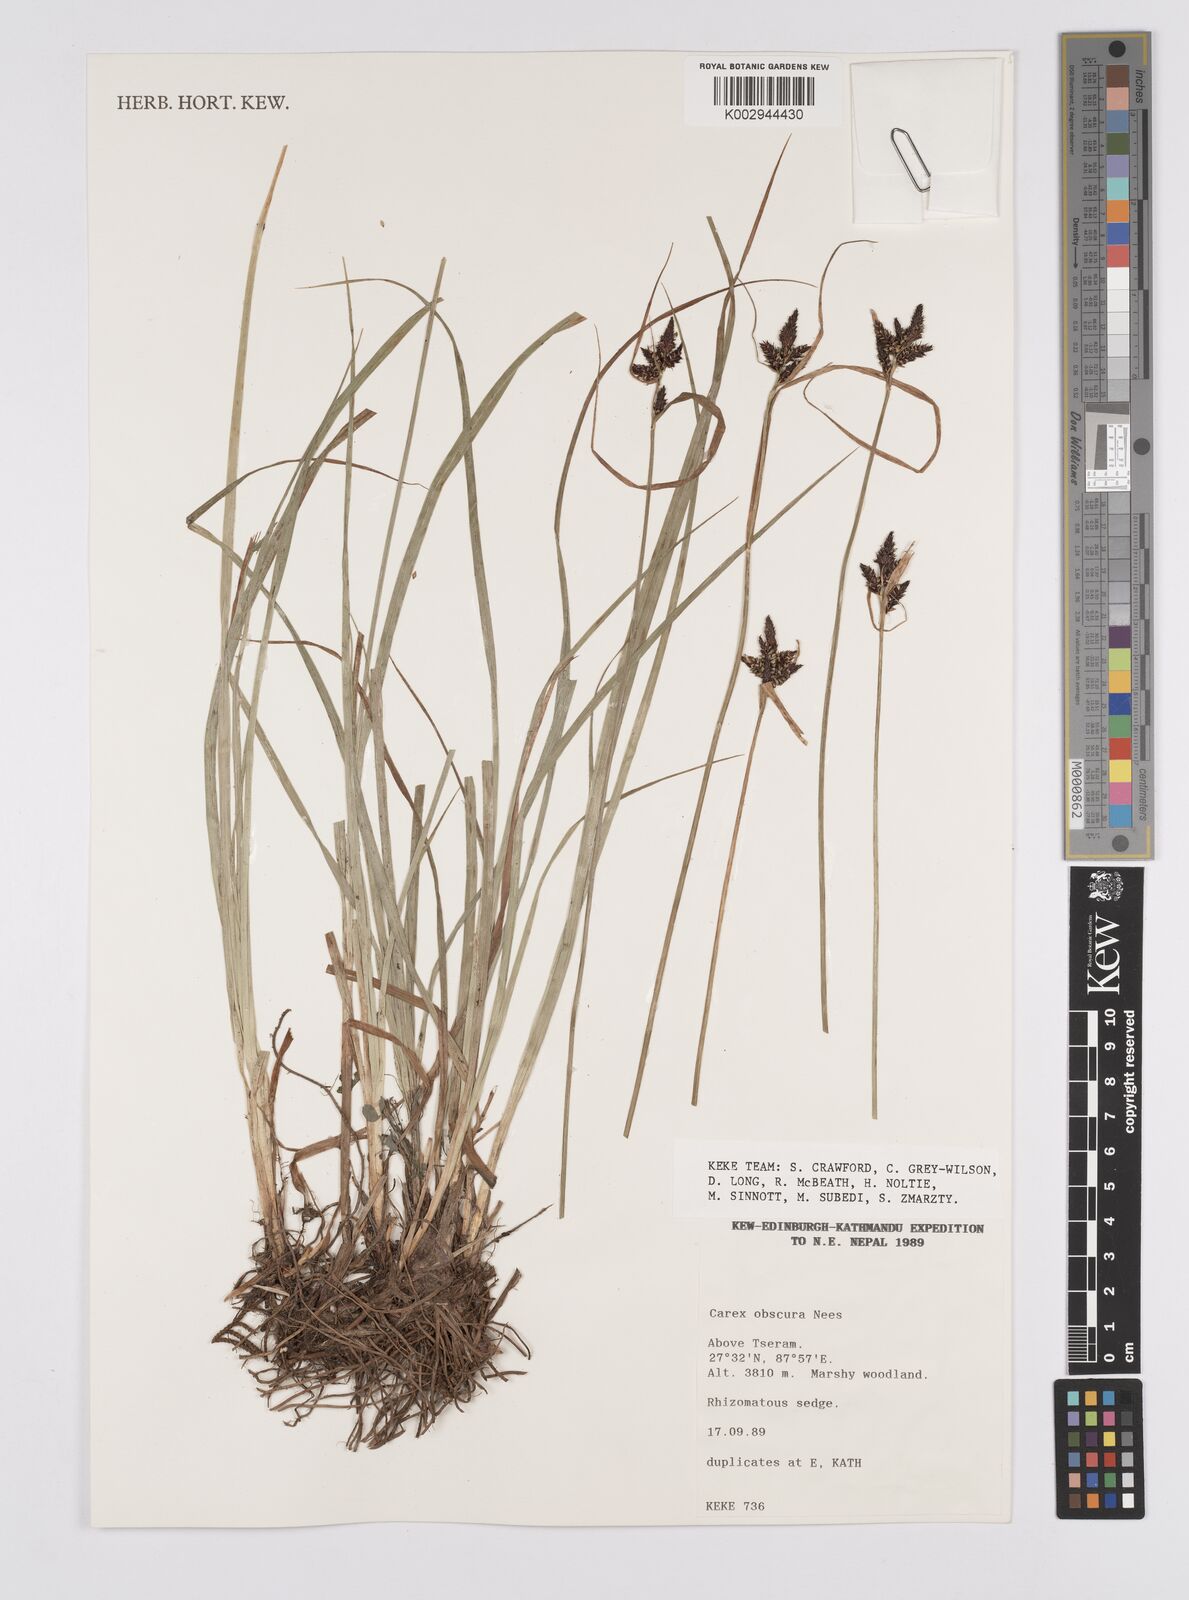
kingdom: Plantae
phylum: Tracheophyta
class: Liliopsida
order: Poales
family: Cyperaceae
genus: Carex
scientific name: Carex obscura
